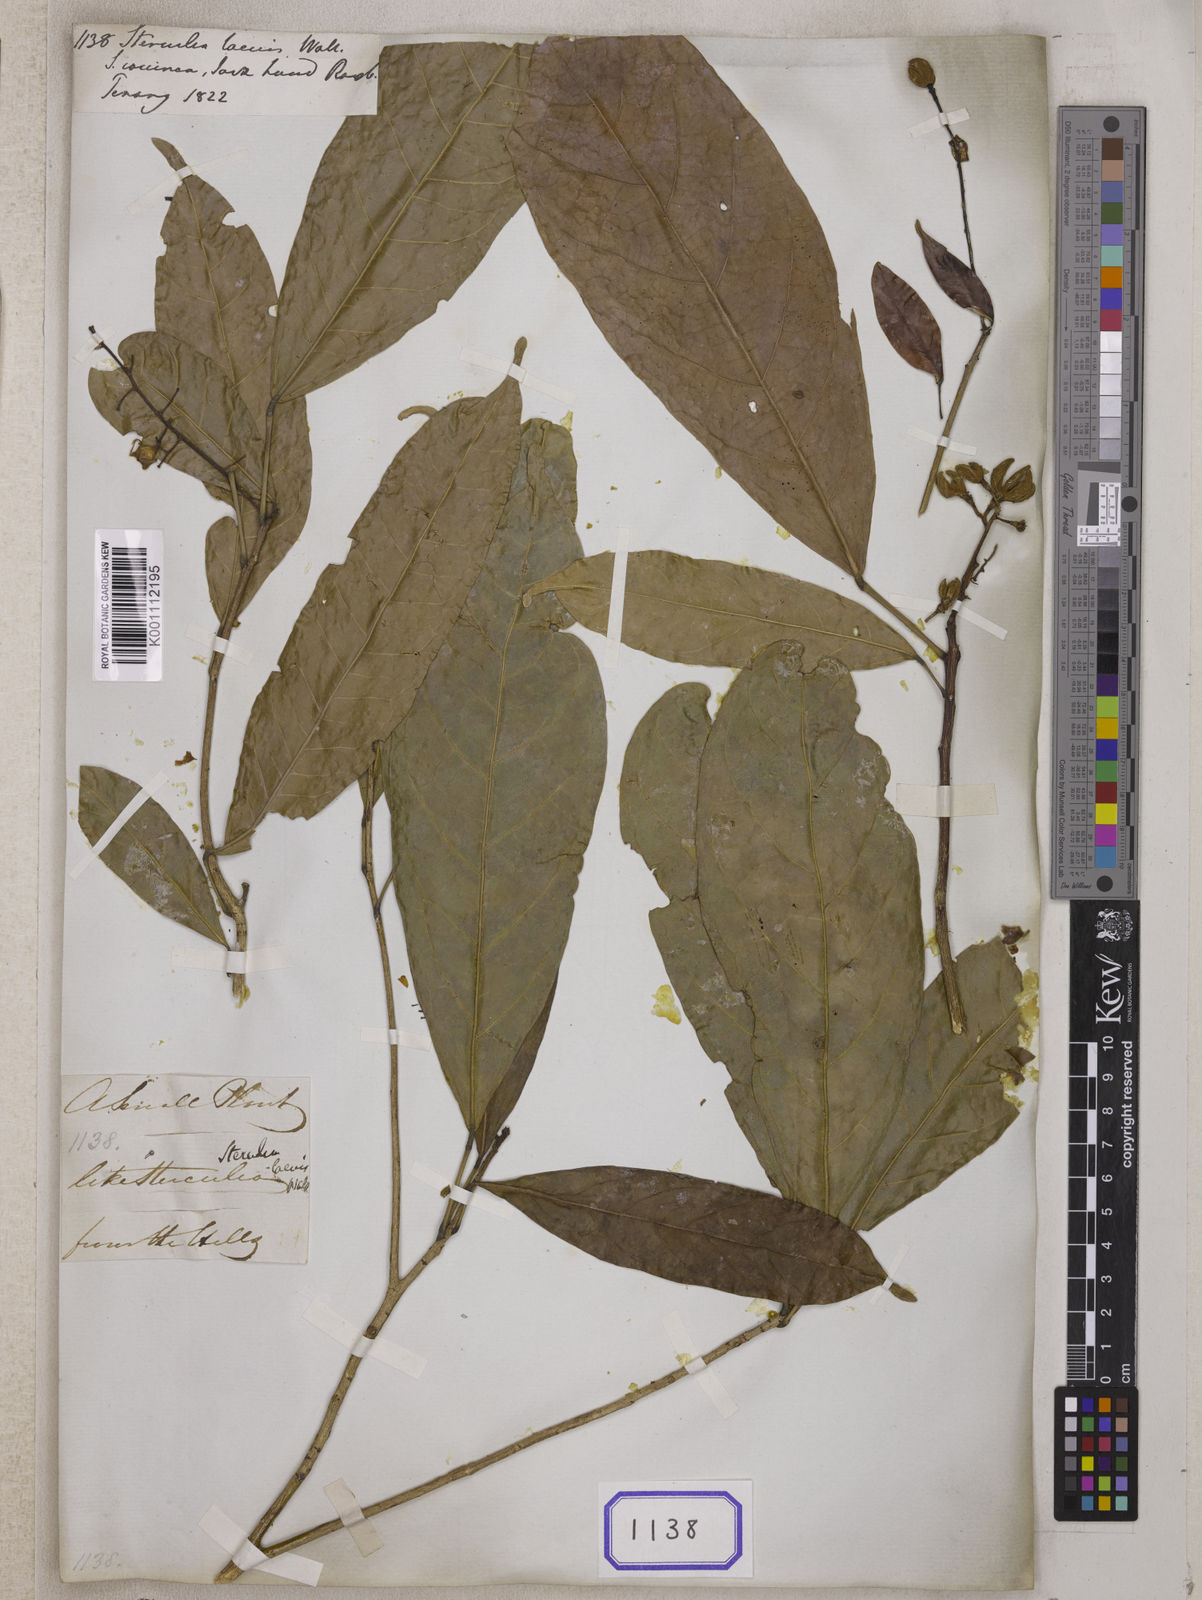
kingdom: Plantae
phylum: Tracheophyta
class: Magnoliopsida
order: Malvales
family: Malvaceae
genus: Sterculia
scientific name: Sterculia
